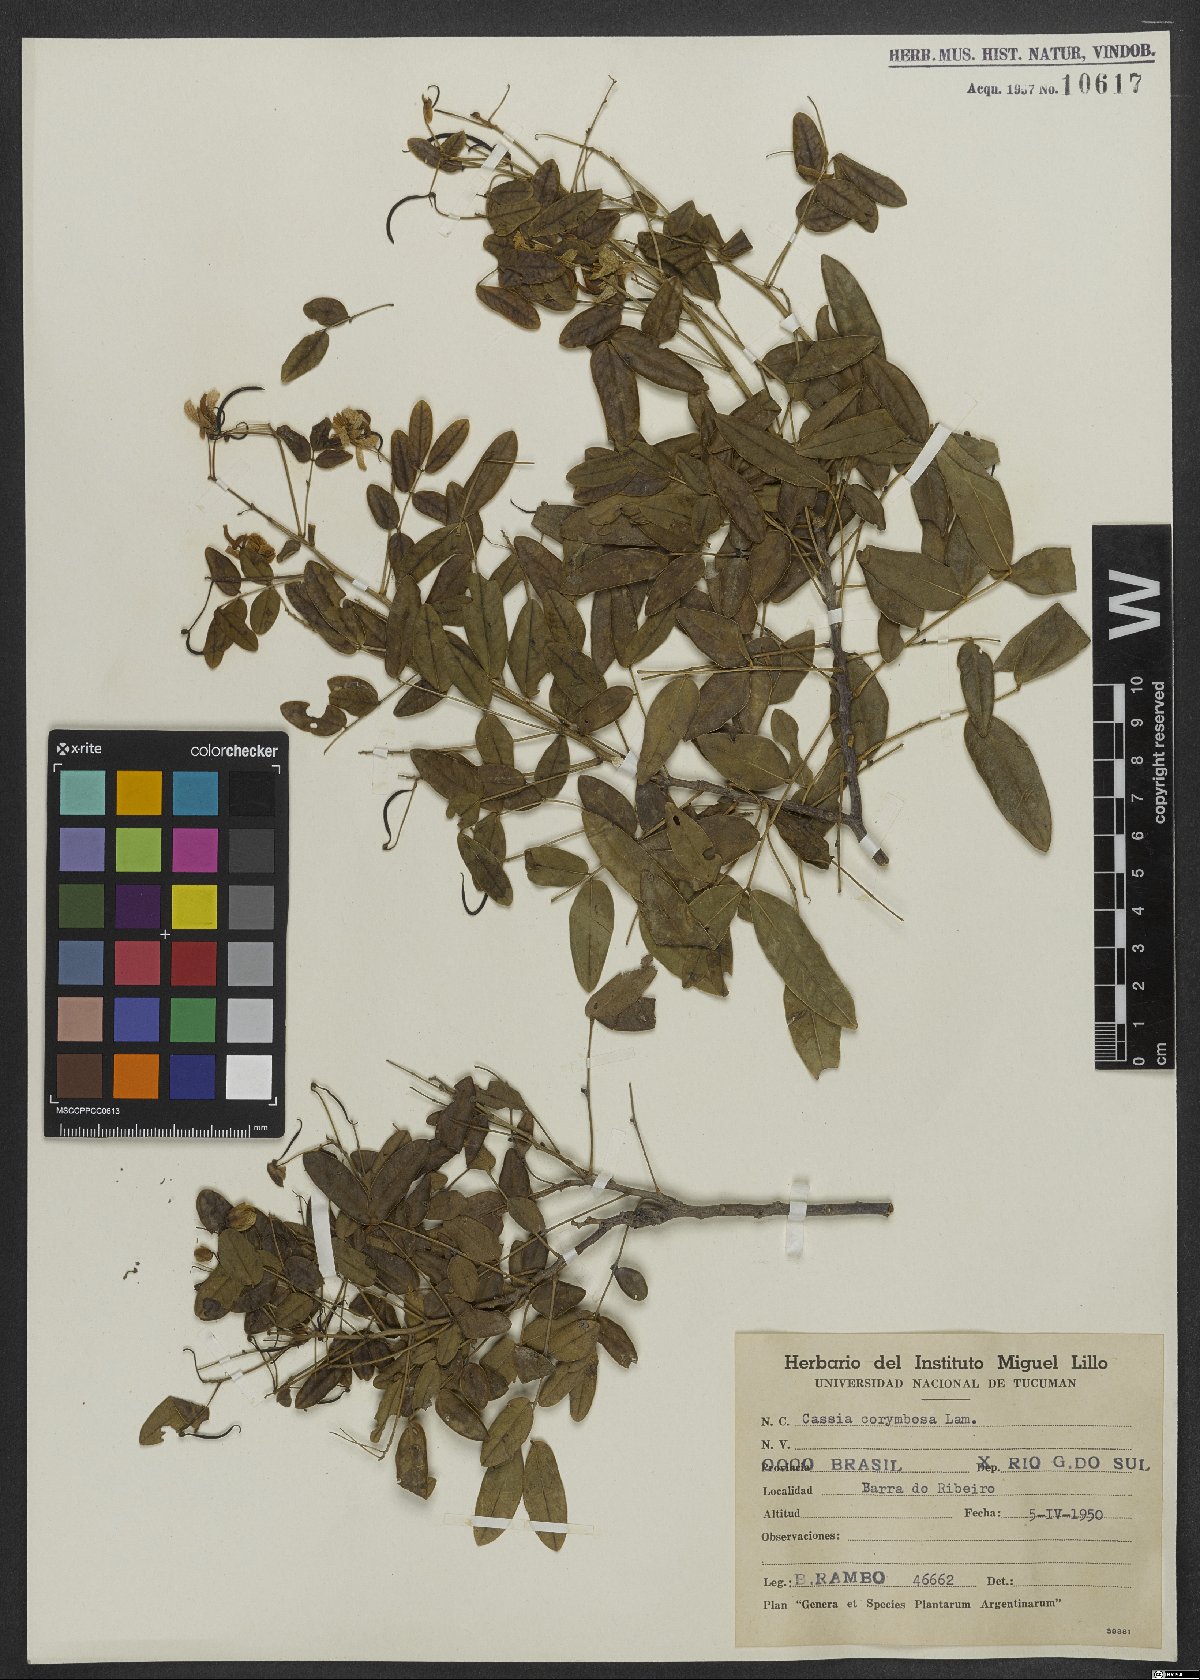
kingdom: Plantae
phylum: Tracheophyta
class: Magnoliopsida
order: Fabales
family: Fabaceae
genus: Senna
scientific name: Senna corymbosa
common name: Argentine senna
